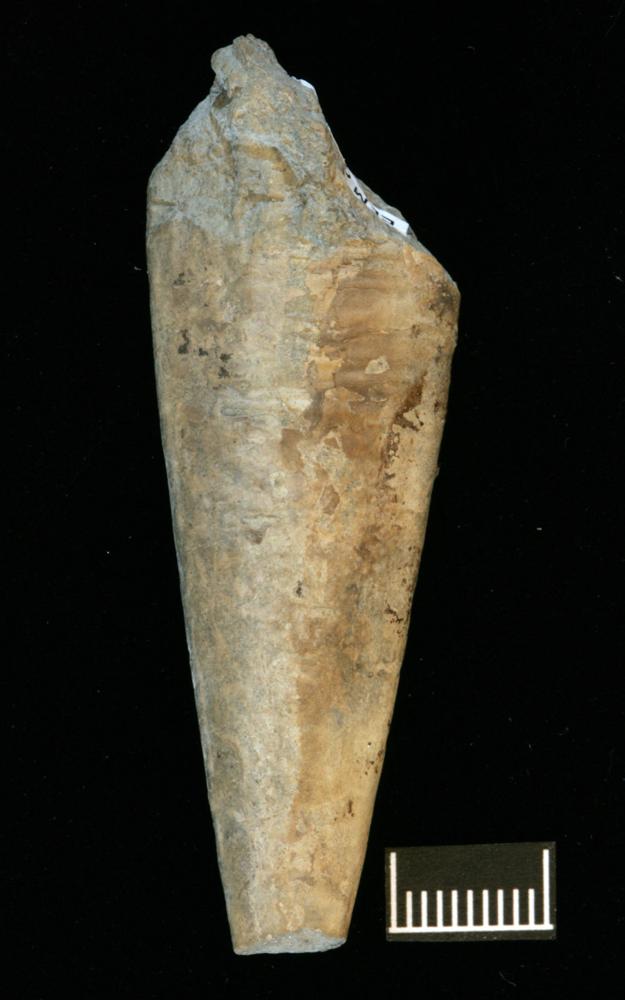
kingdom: Animalia
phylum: Annelida
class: Polychaeta
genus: Hyolithes
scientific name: Hyolithes
